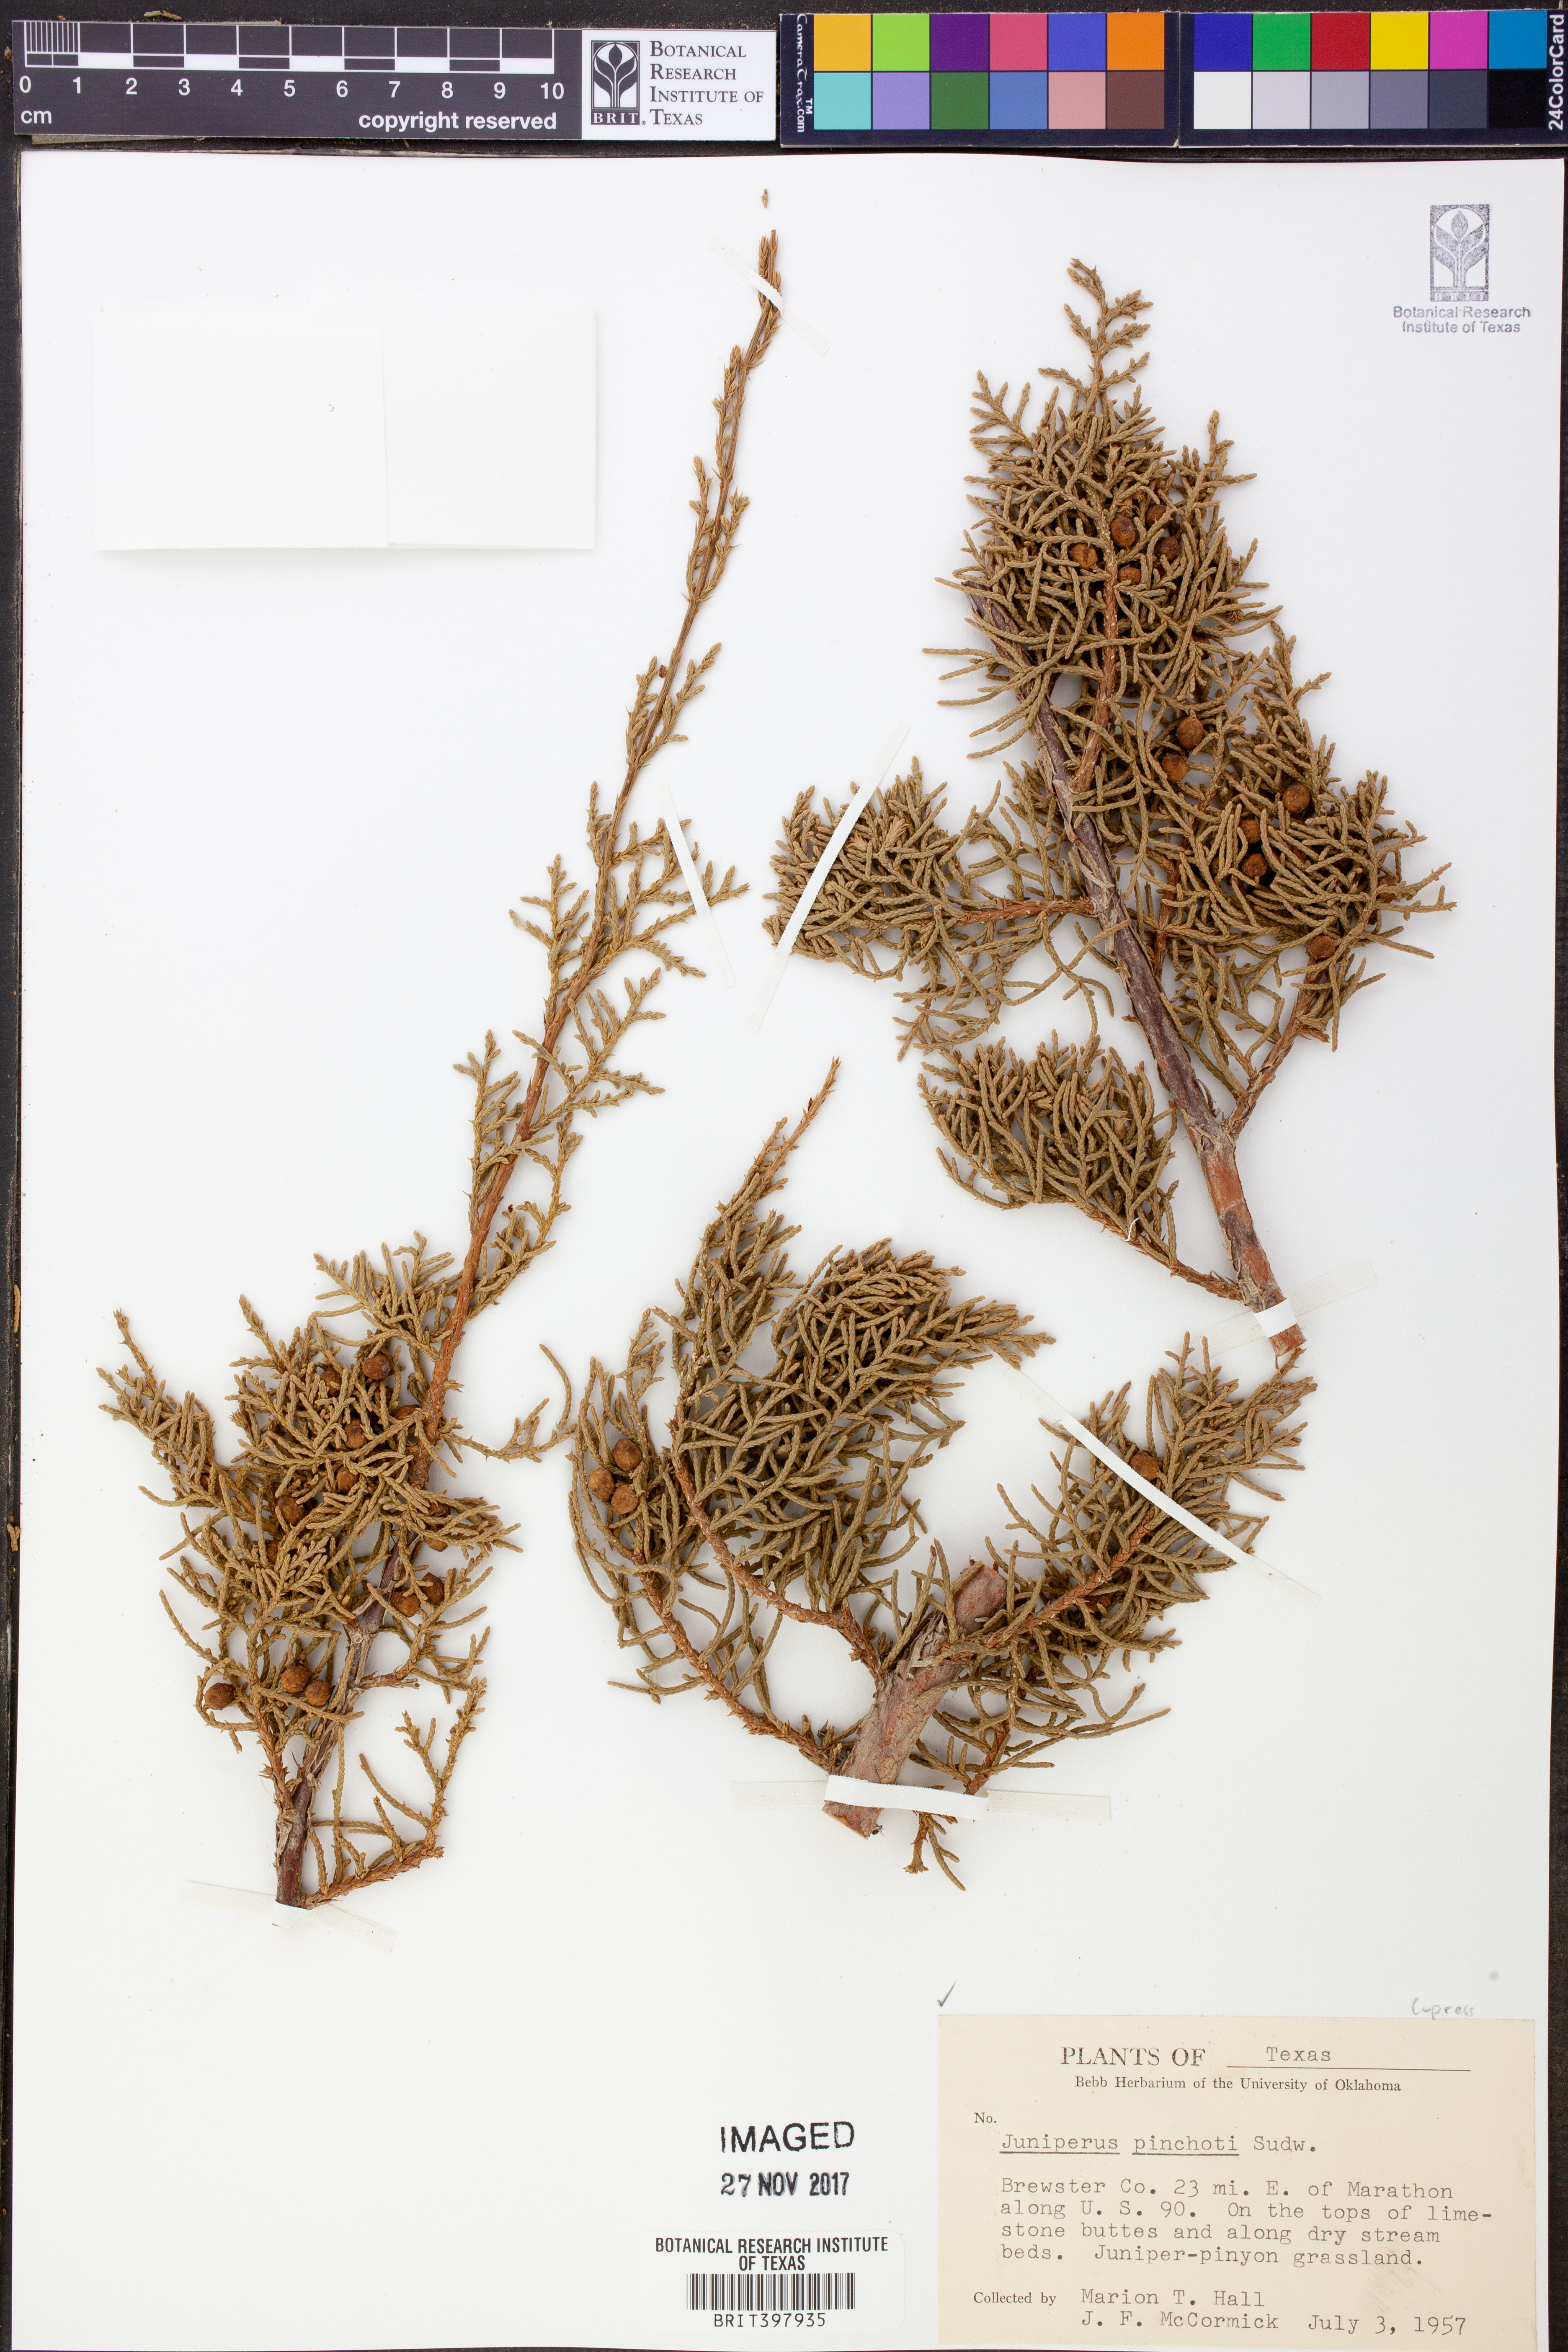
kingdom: Plantae
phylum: Tracheophyta
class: Pinopsida
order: Pinales
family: Cupressaceae
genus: Juniperus
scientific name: Juniperus pinchotii
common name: Pinchot juniper
